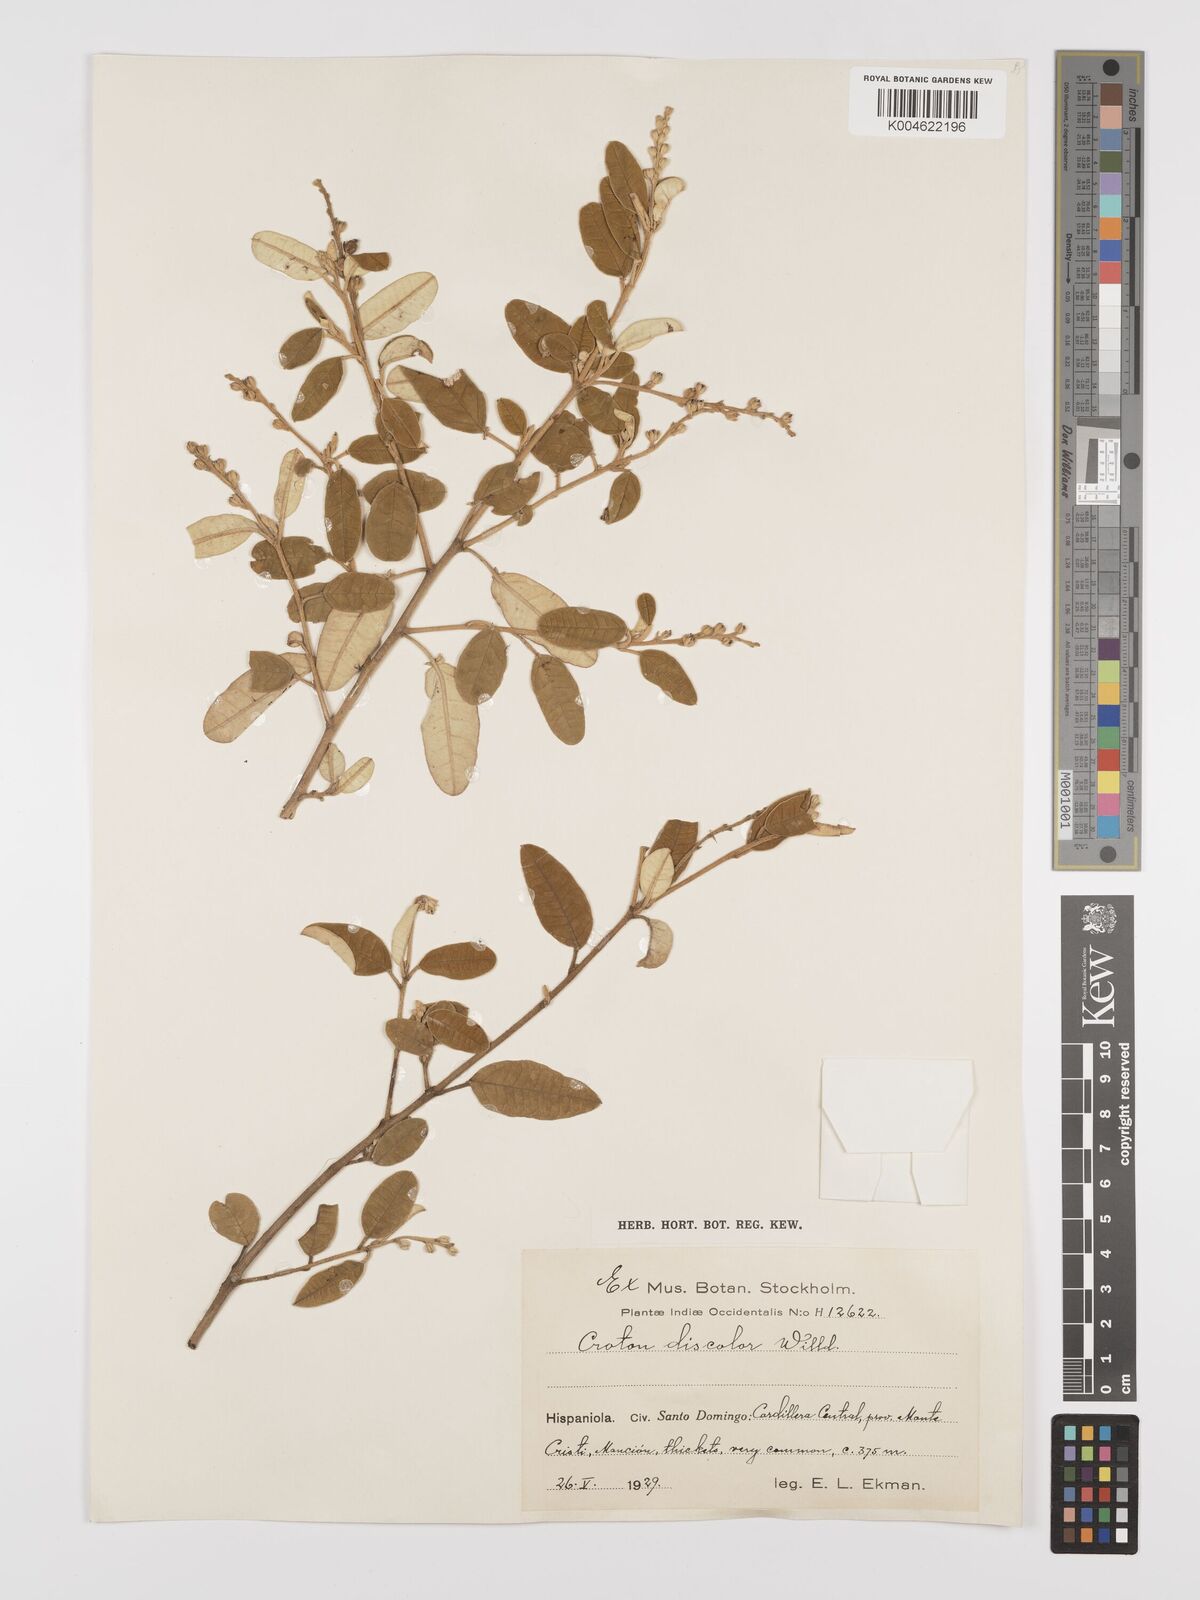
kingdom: Plantae
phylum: Tracheophyta
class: Magnoliopsida
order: Malpighiales
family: Euphorbiaceae
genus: Croton
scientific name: Croton
